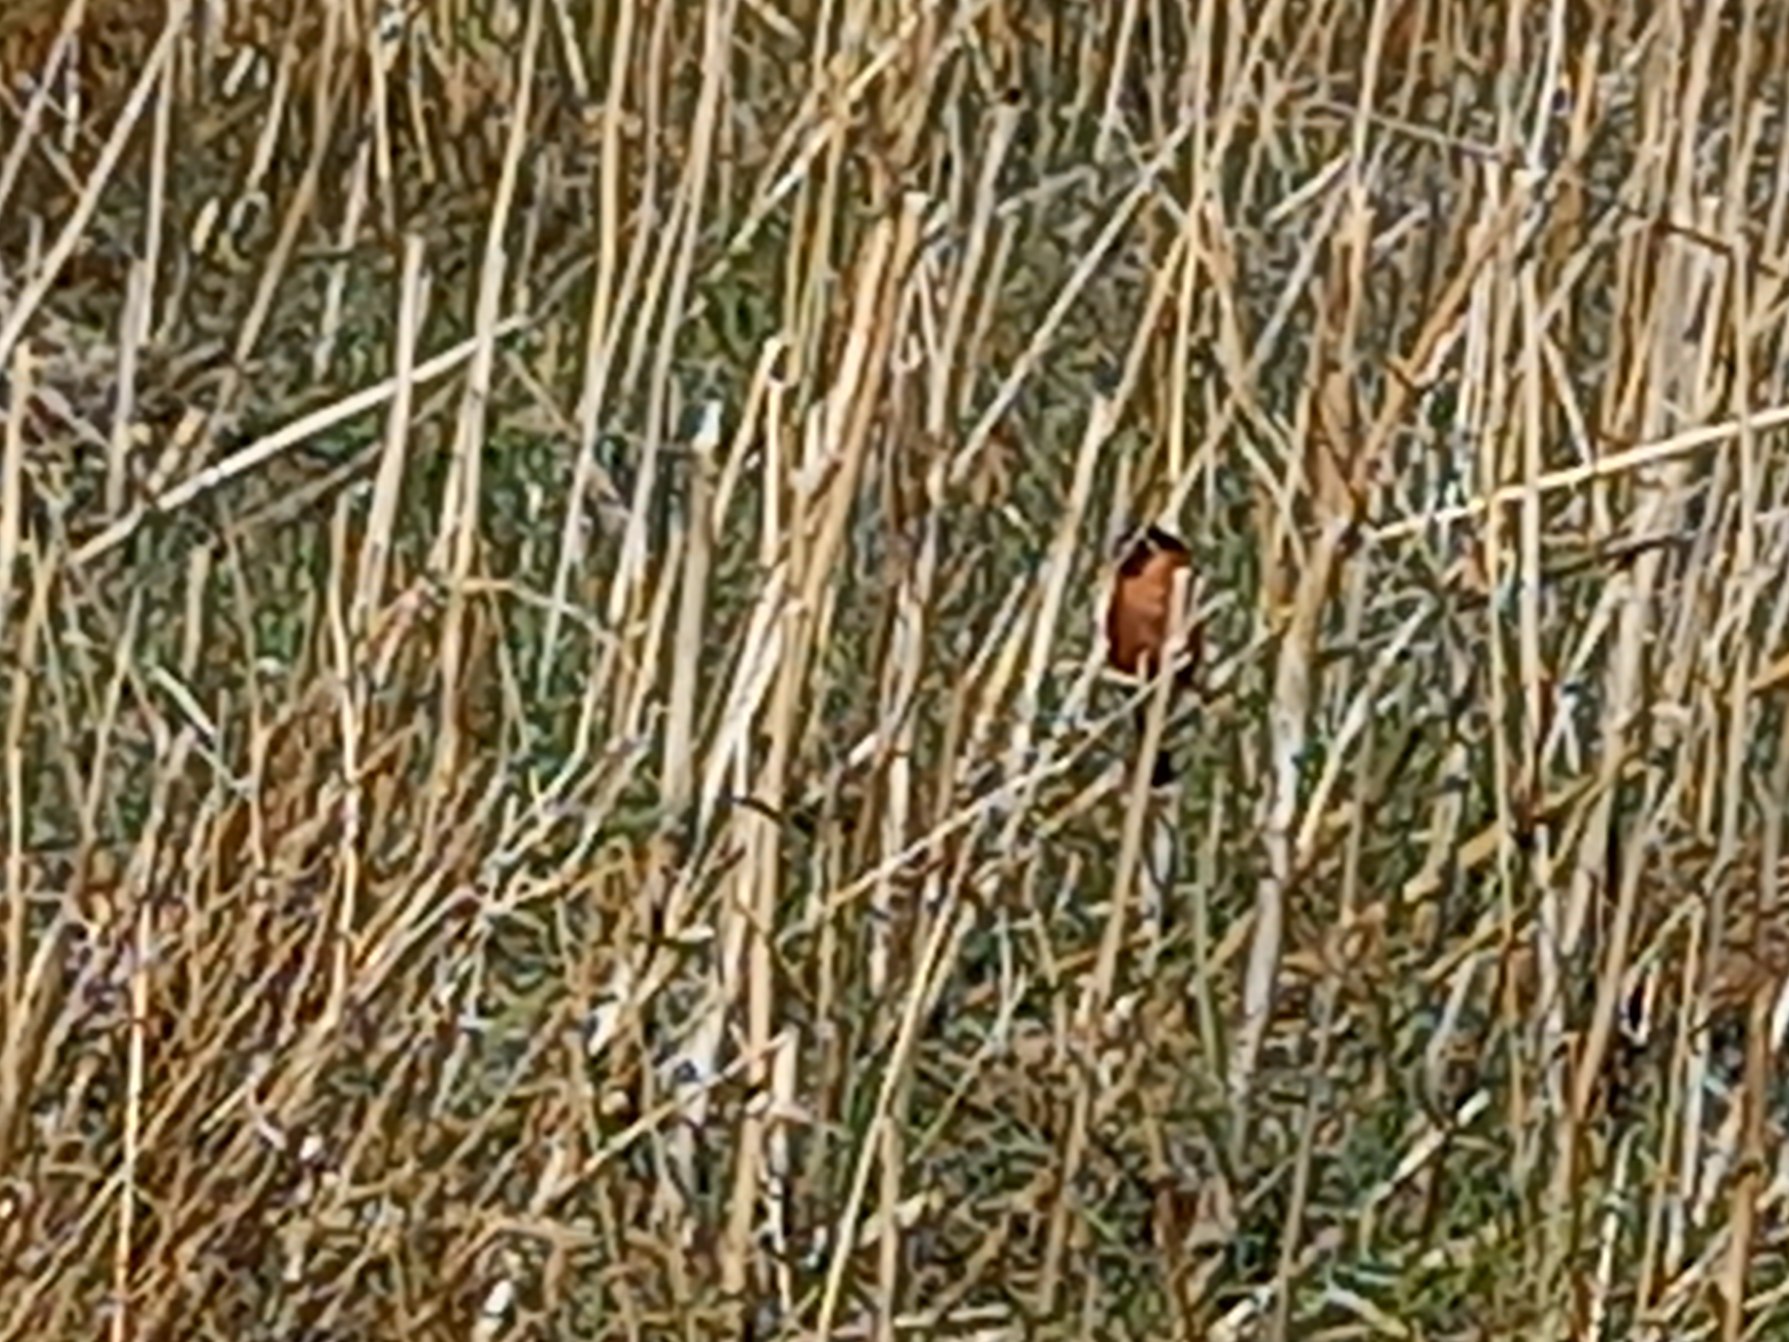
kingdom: Animalia
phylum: Chordata
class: Aves
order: Passeriformes
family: Fringillidae
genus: Pyrrhula
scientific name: Pyrrhula pyrrhula
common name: Dompap
